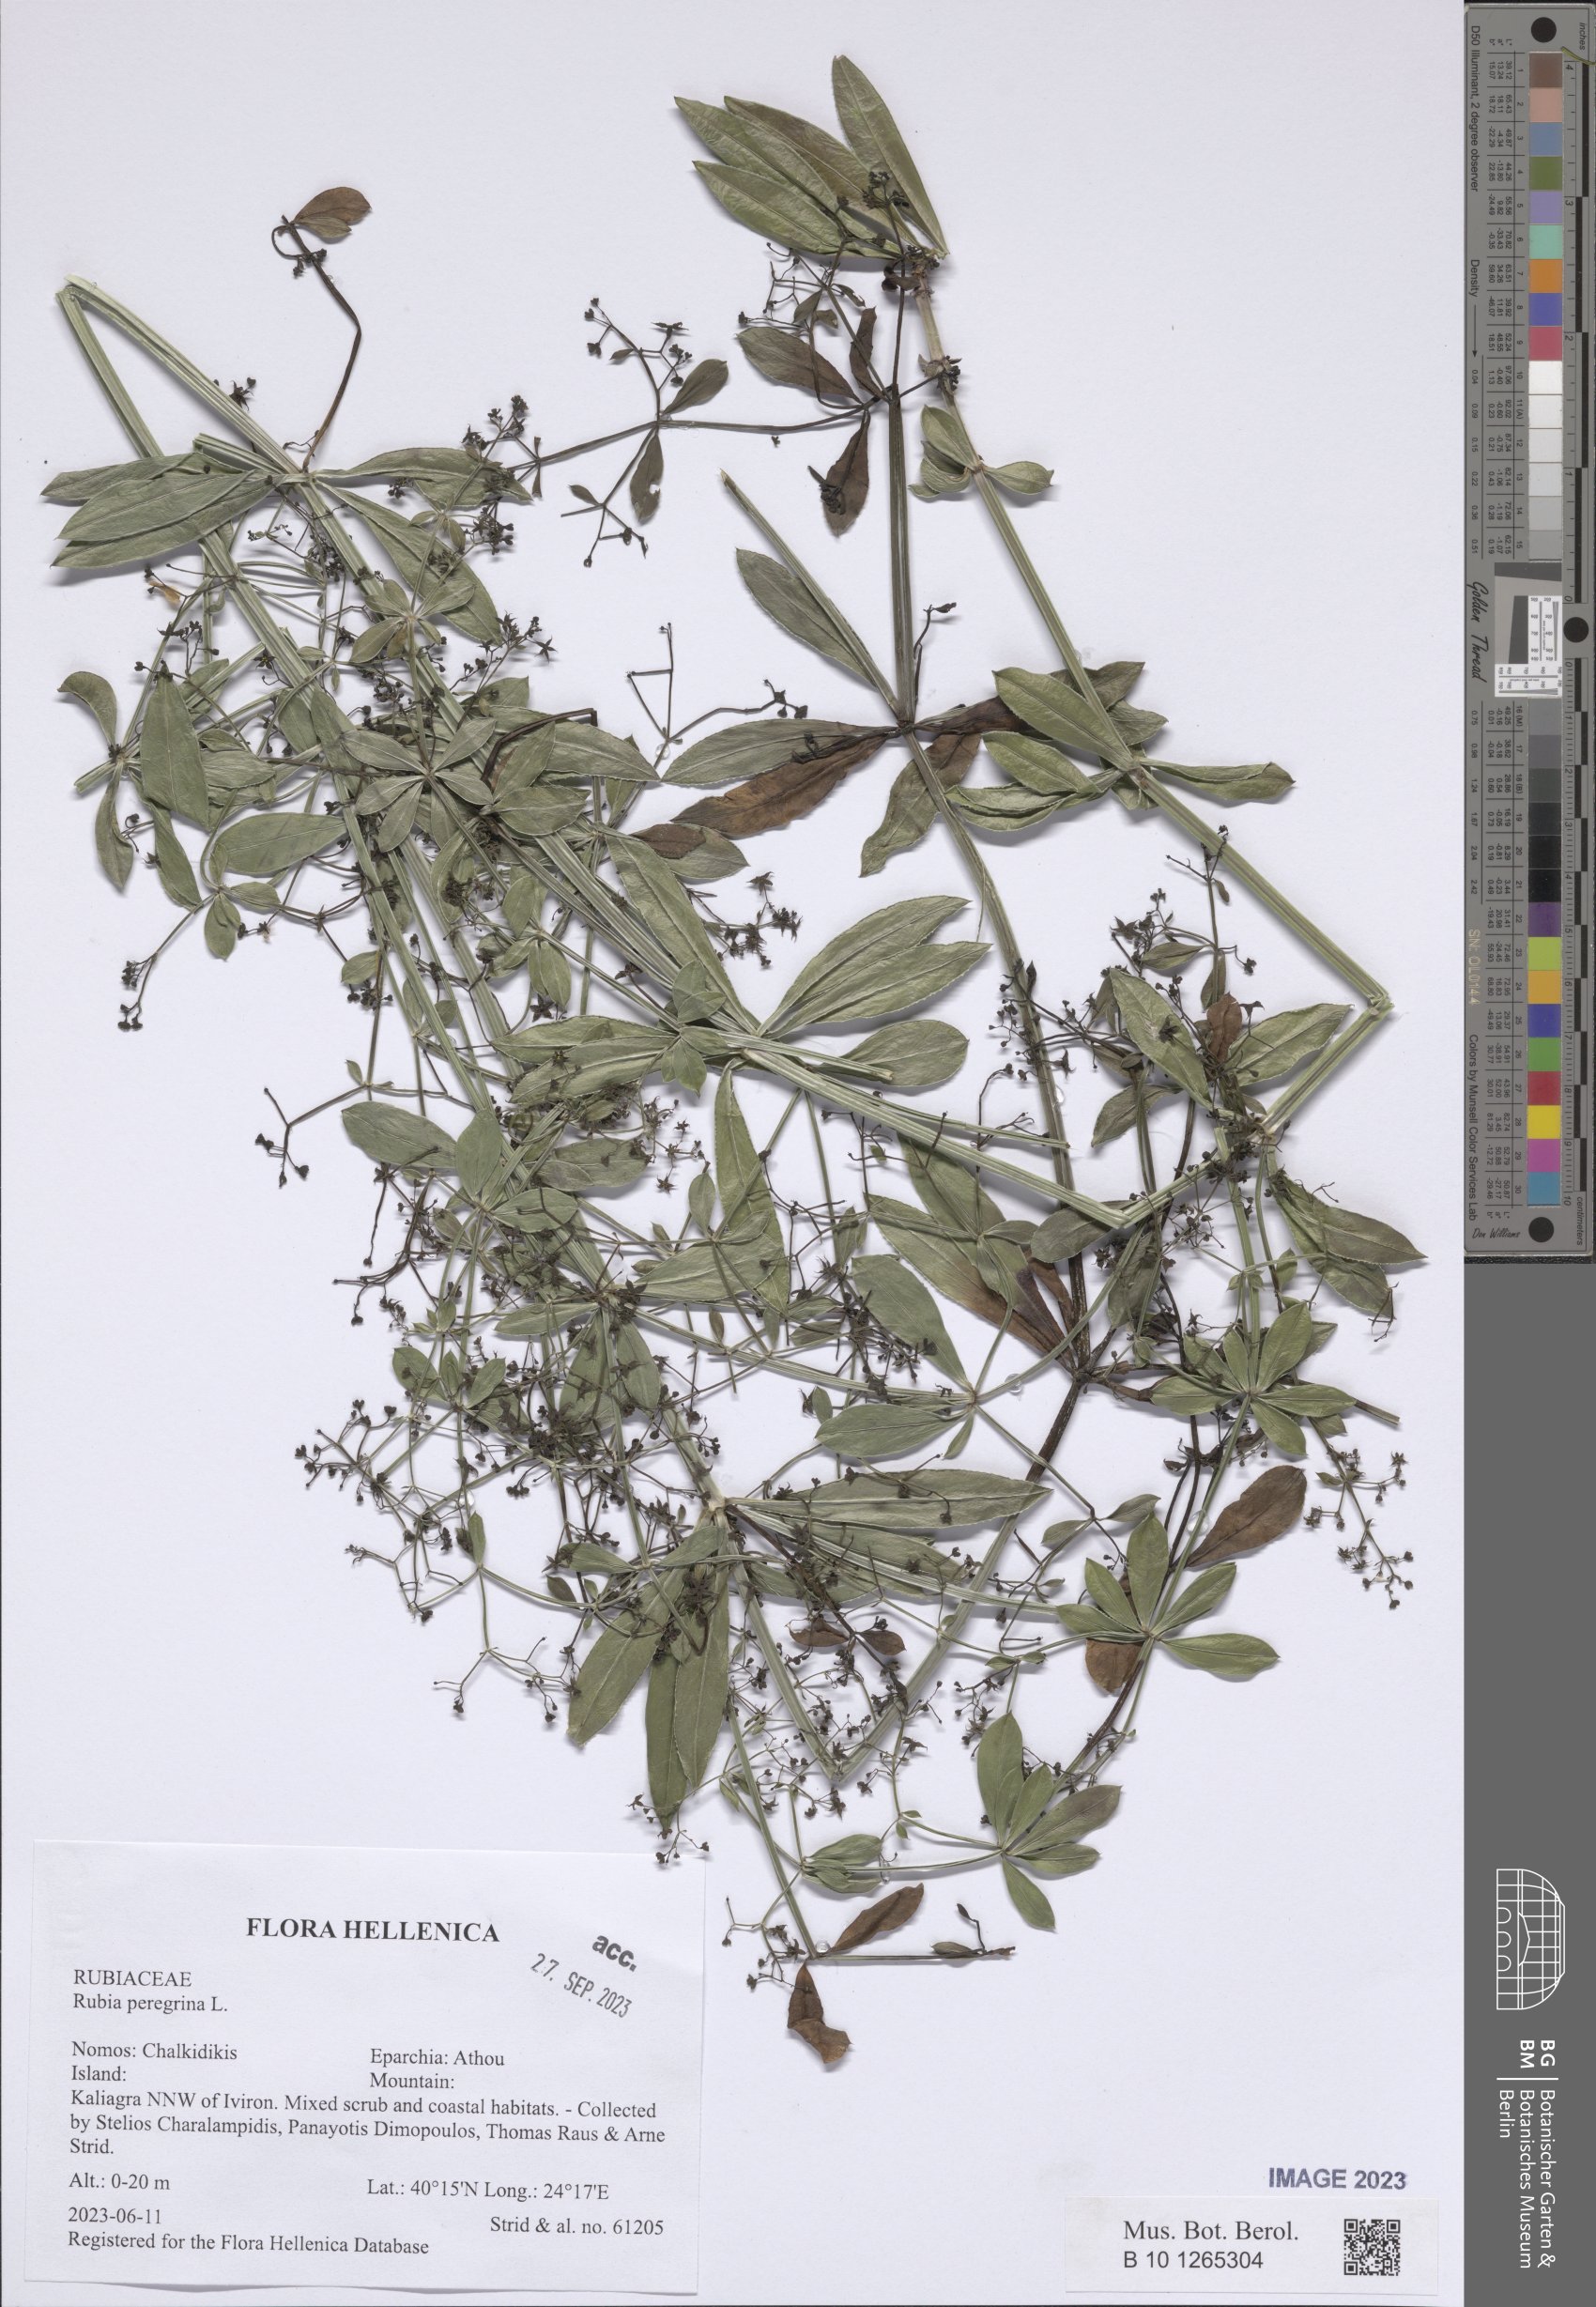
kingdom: Plantae
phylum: Tracheophyta
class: Magnoliopsida
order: Gentianales
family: Rubiaceae
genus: Rubia
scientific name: Rubia peregrina
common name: Wild madder
